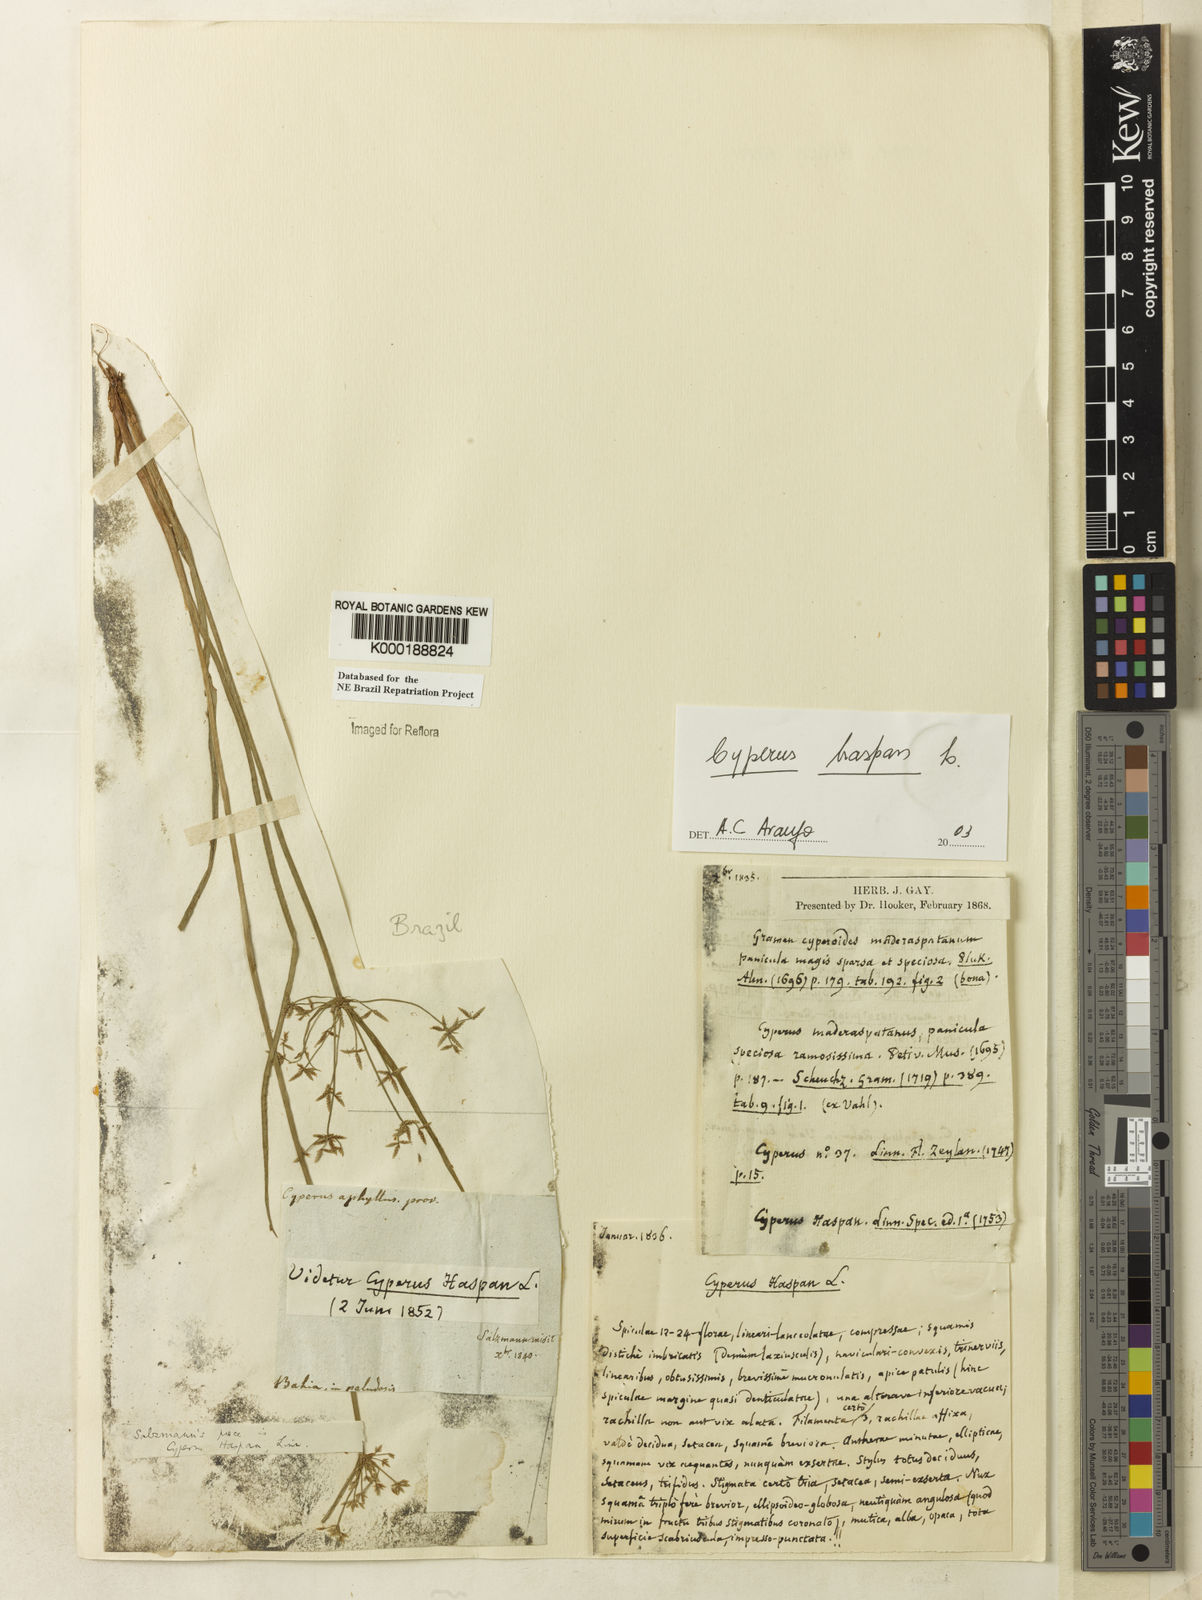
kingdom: Plantae
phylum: Tracheophyta
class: Liliopsida
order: Poales
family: Cyperaceae
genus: Cyperus
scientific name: Cyperus haspan
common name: Haspan flatsedge
